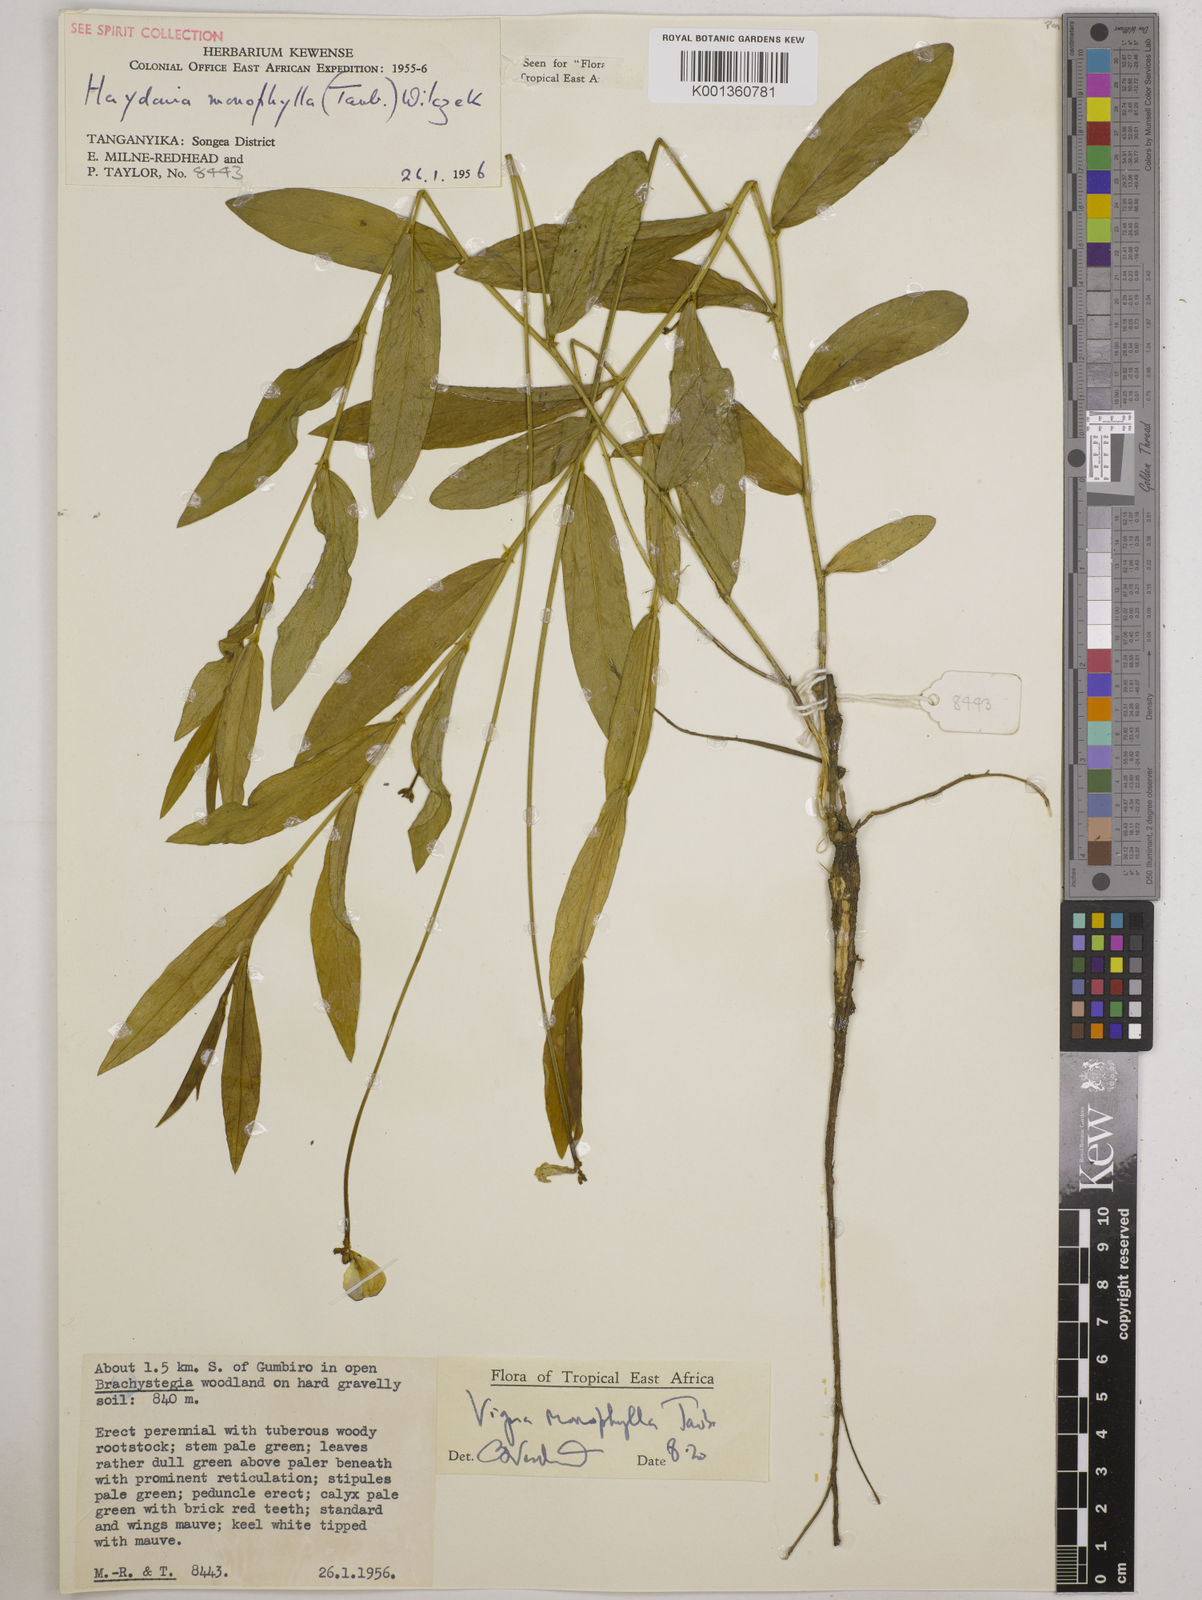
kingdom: Plantae
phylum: Tracheophyta
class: Magnoliopsida
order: Fabales
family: Fabaceae
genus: Vigna
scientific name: Vigna monophylla
